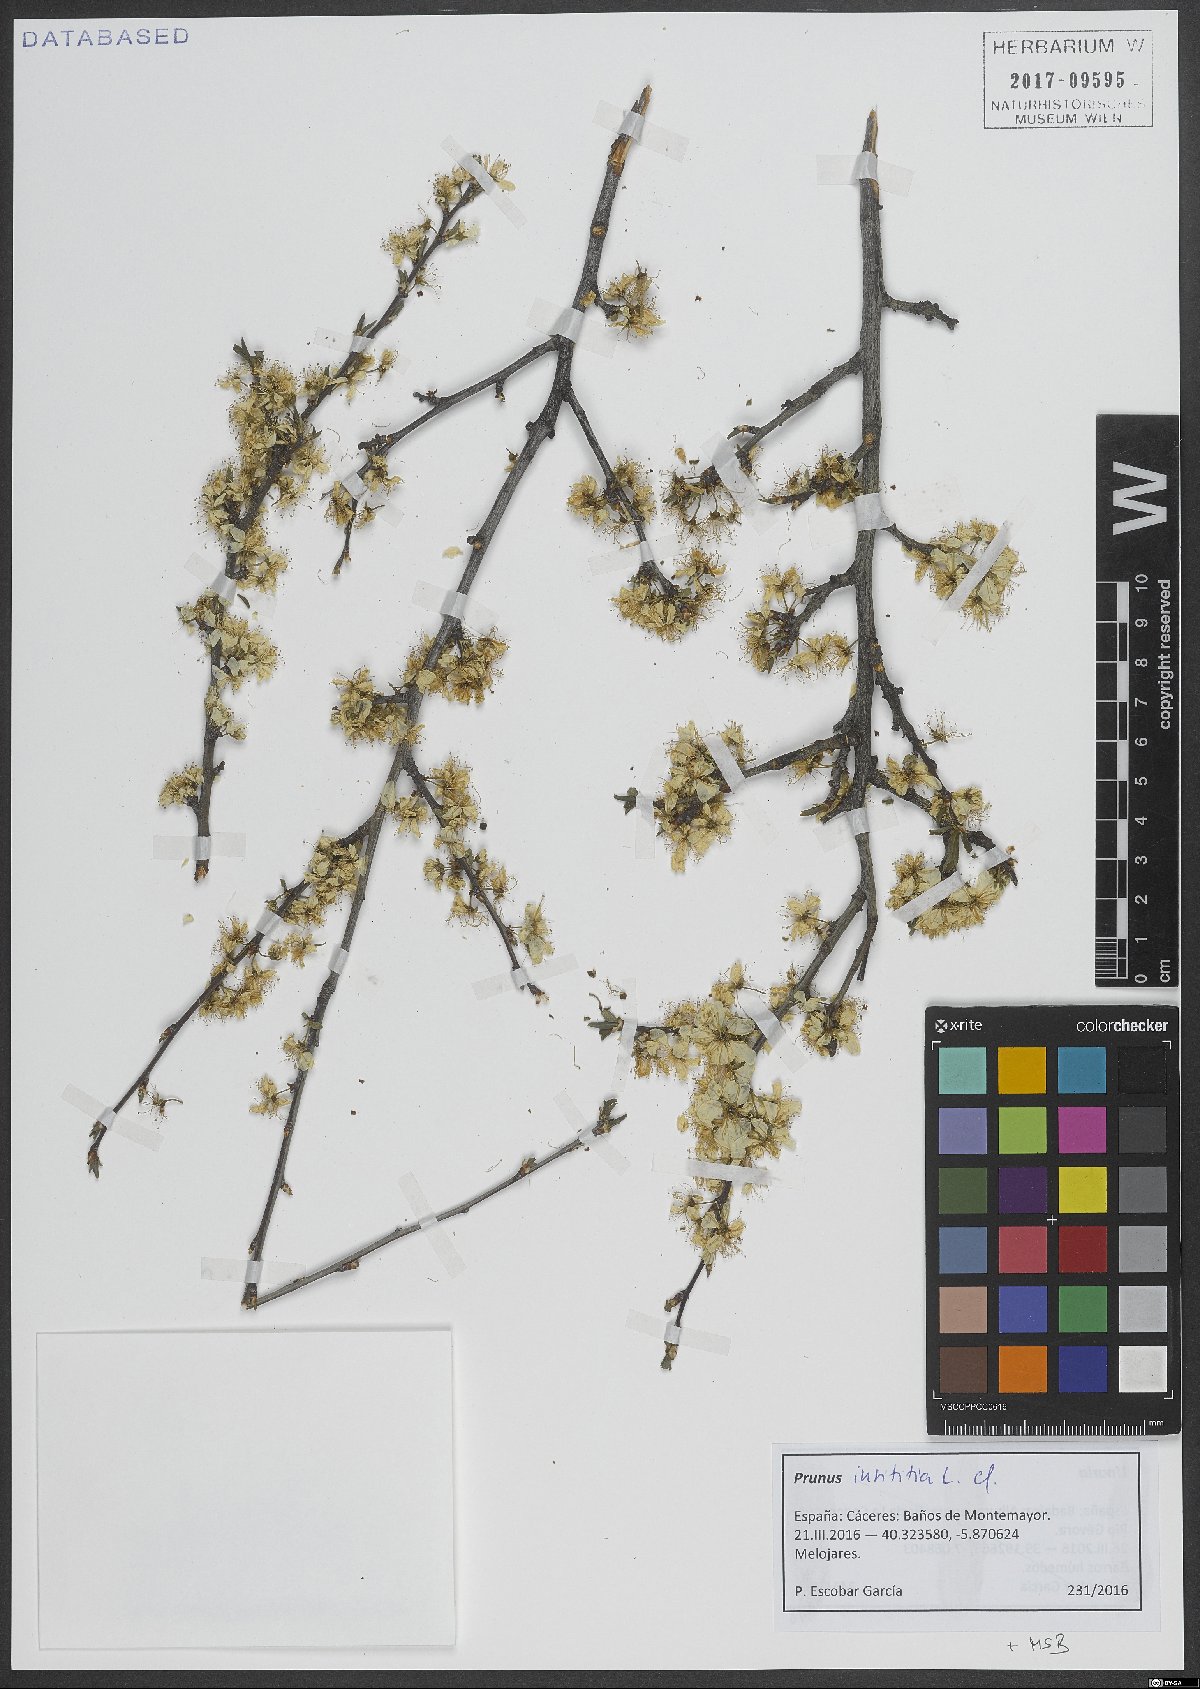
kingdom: Plantae
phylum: Tracheophyta
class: Magnoliopsida
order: Rosales
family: Rosaceae
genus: Prunus
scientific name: Prunus domestica
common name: Wild plum
